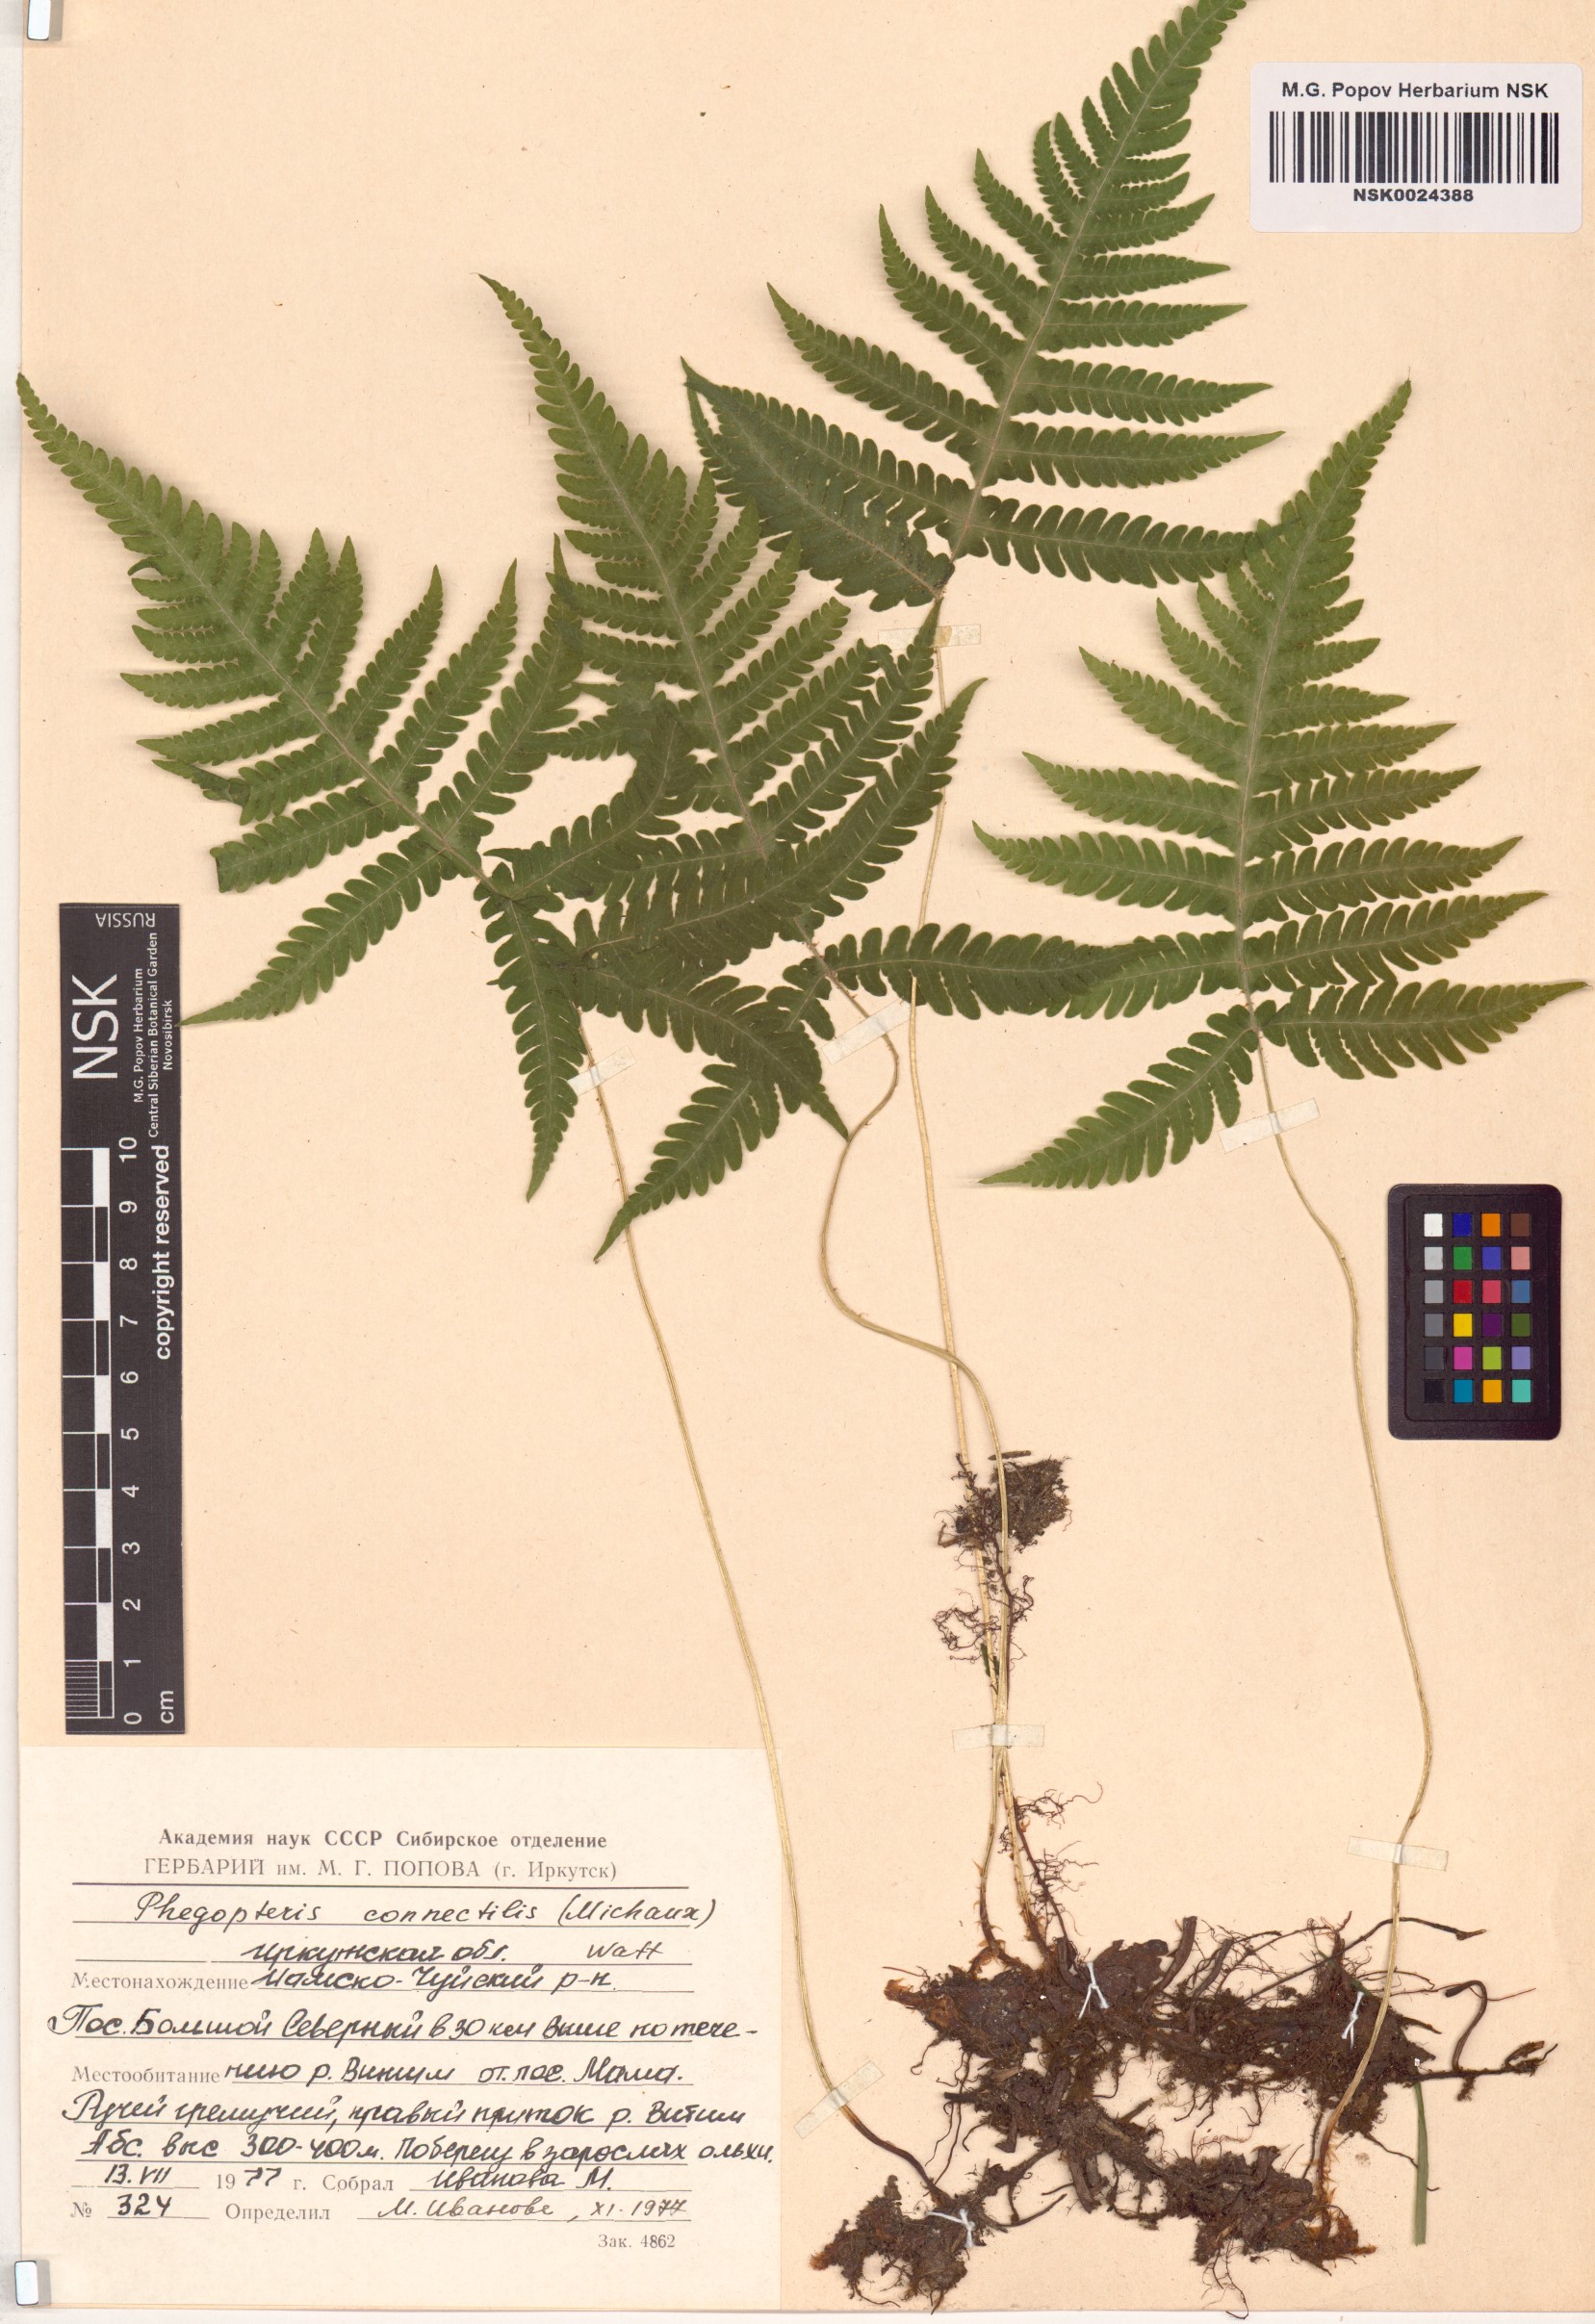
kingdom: Plantae
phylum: Tracheophyta
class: Polypodiopsida
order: Polypodiales
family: Thelypteridaceae
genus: Phegopteris
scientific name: Phegopteris connectilis
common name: Beech fern
